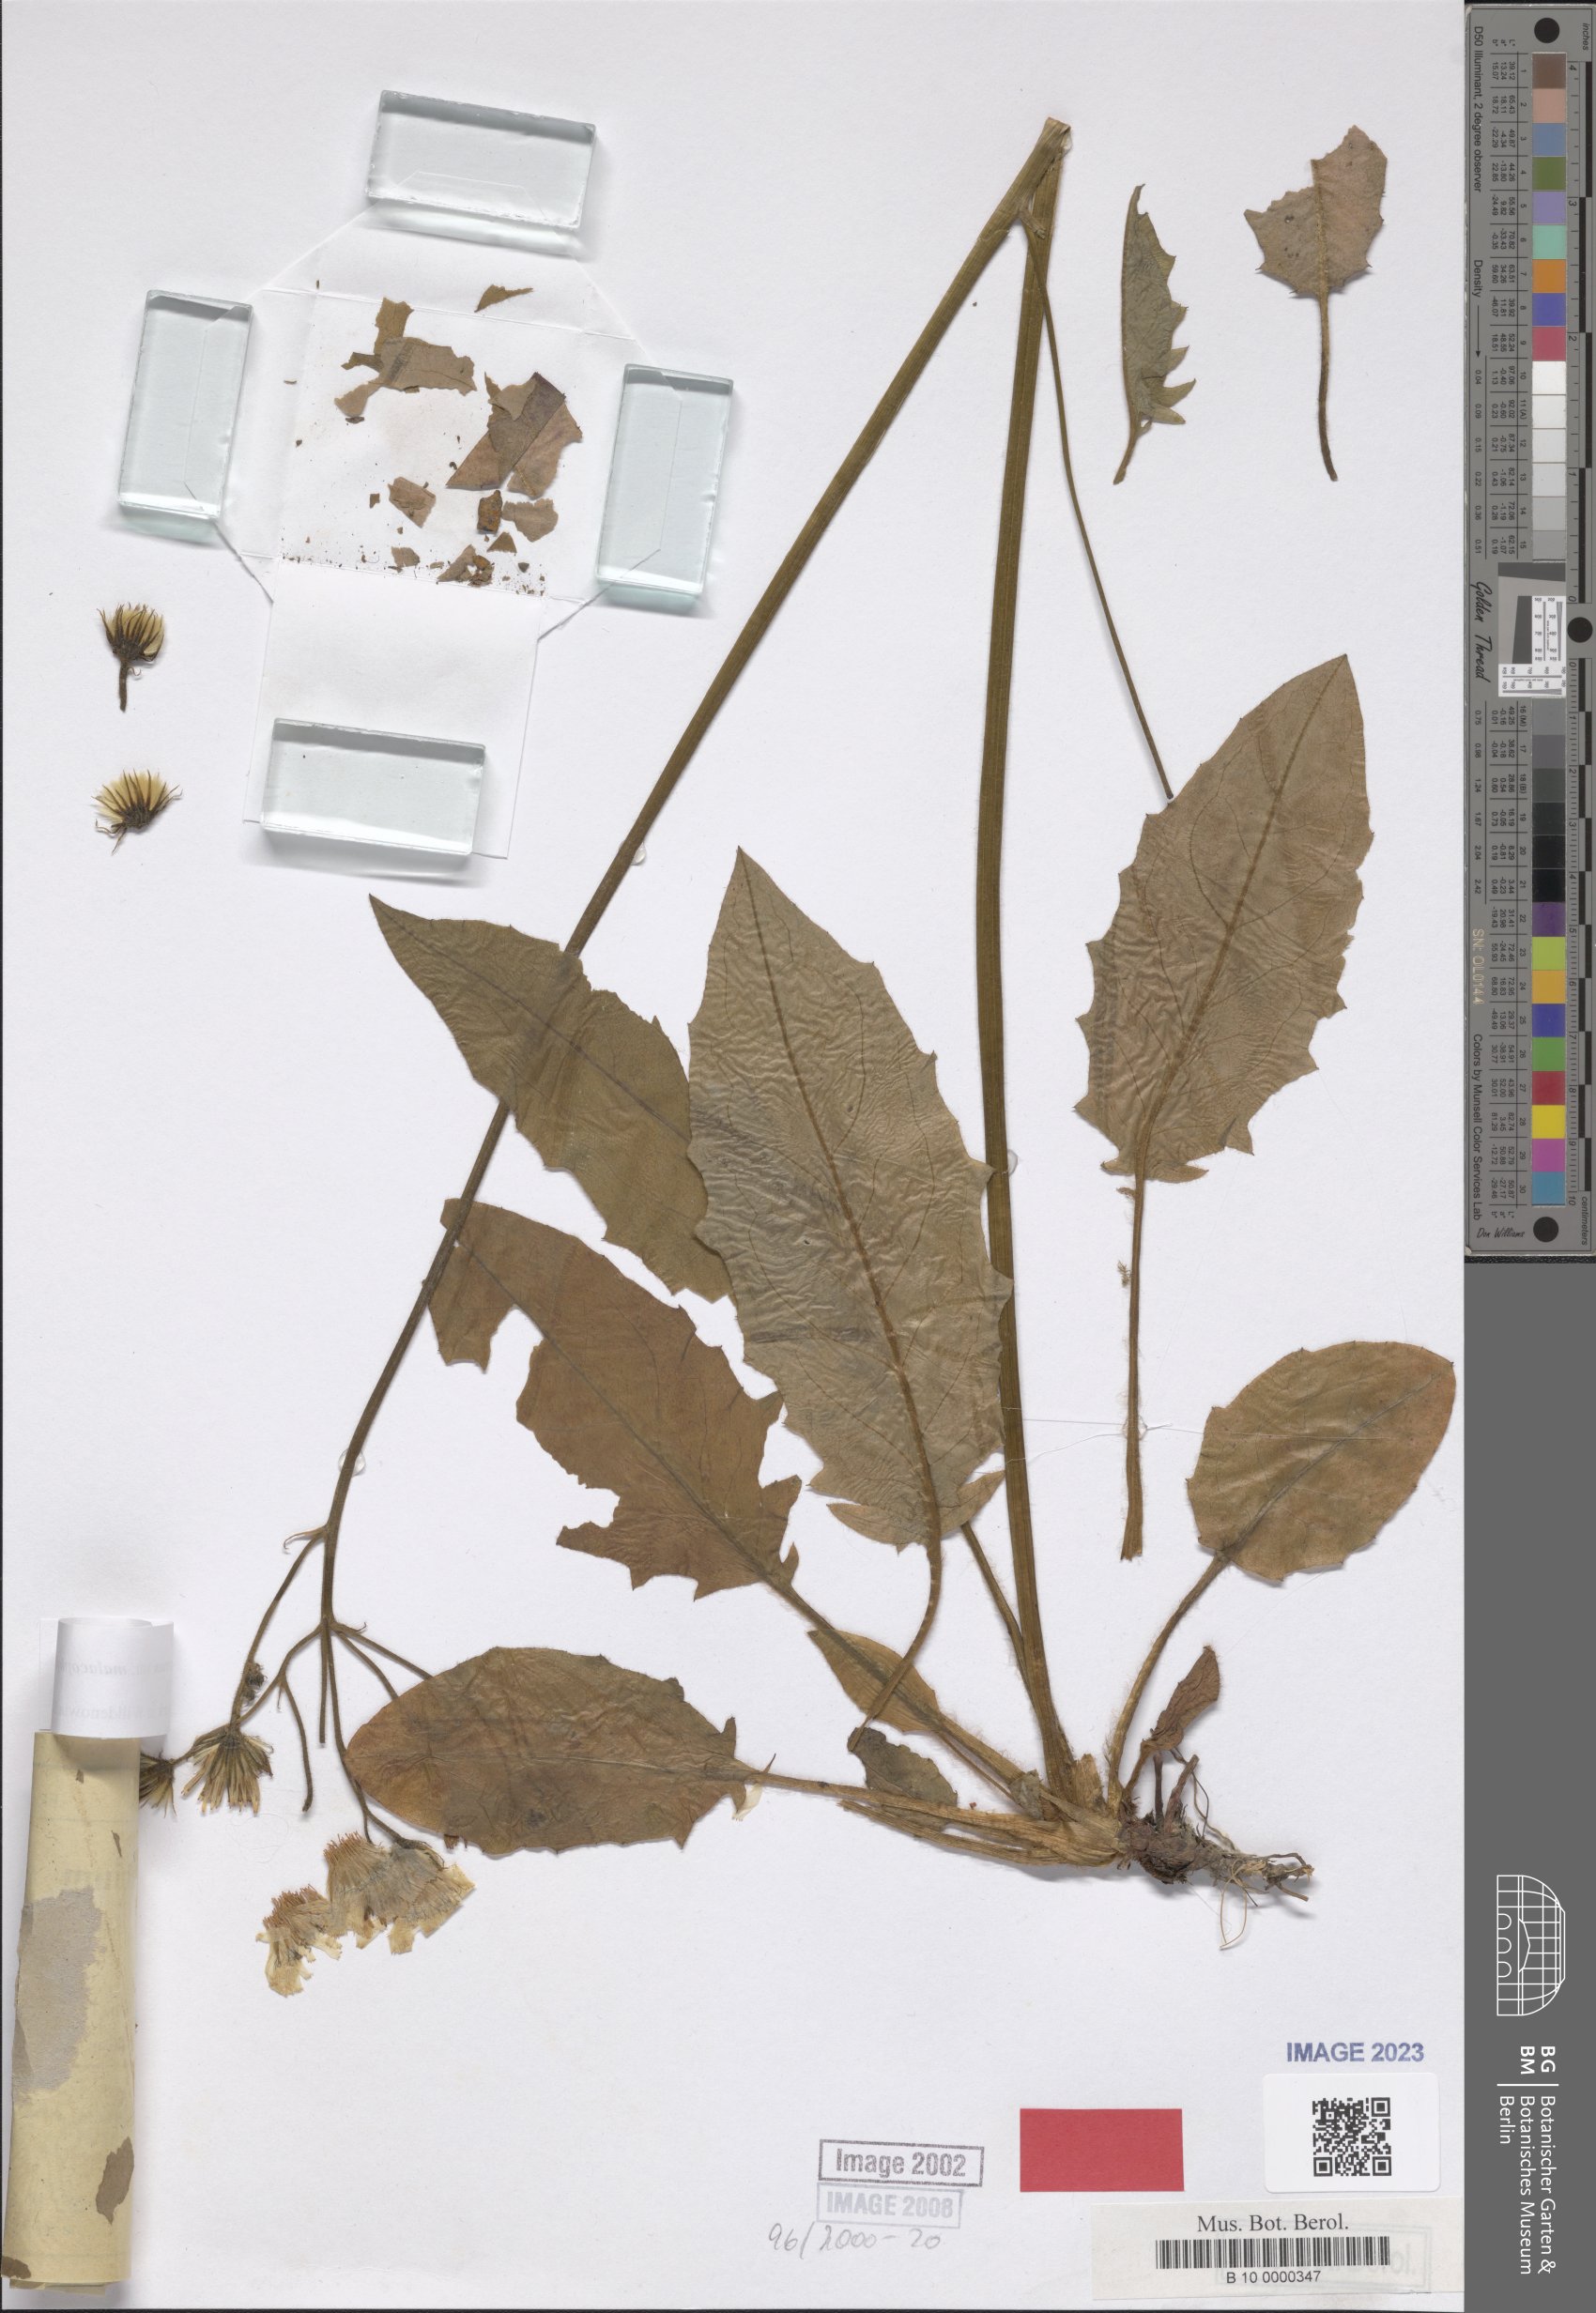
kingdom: Plantae
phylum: Tracheophyta
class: Magnoliopsida
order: Asterales
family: Asteraceae
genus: Hieracium
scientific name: Hieracium murorum
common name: Wall hawkweed
